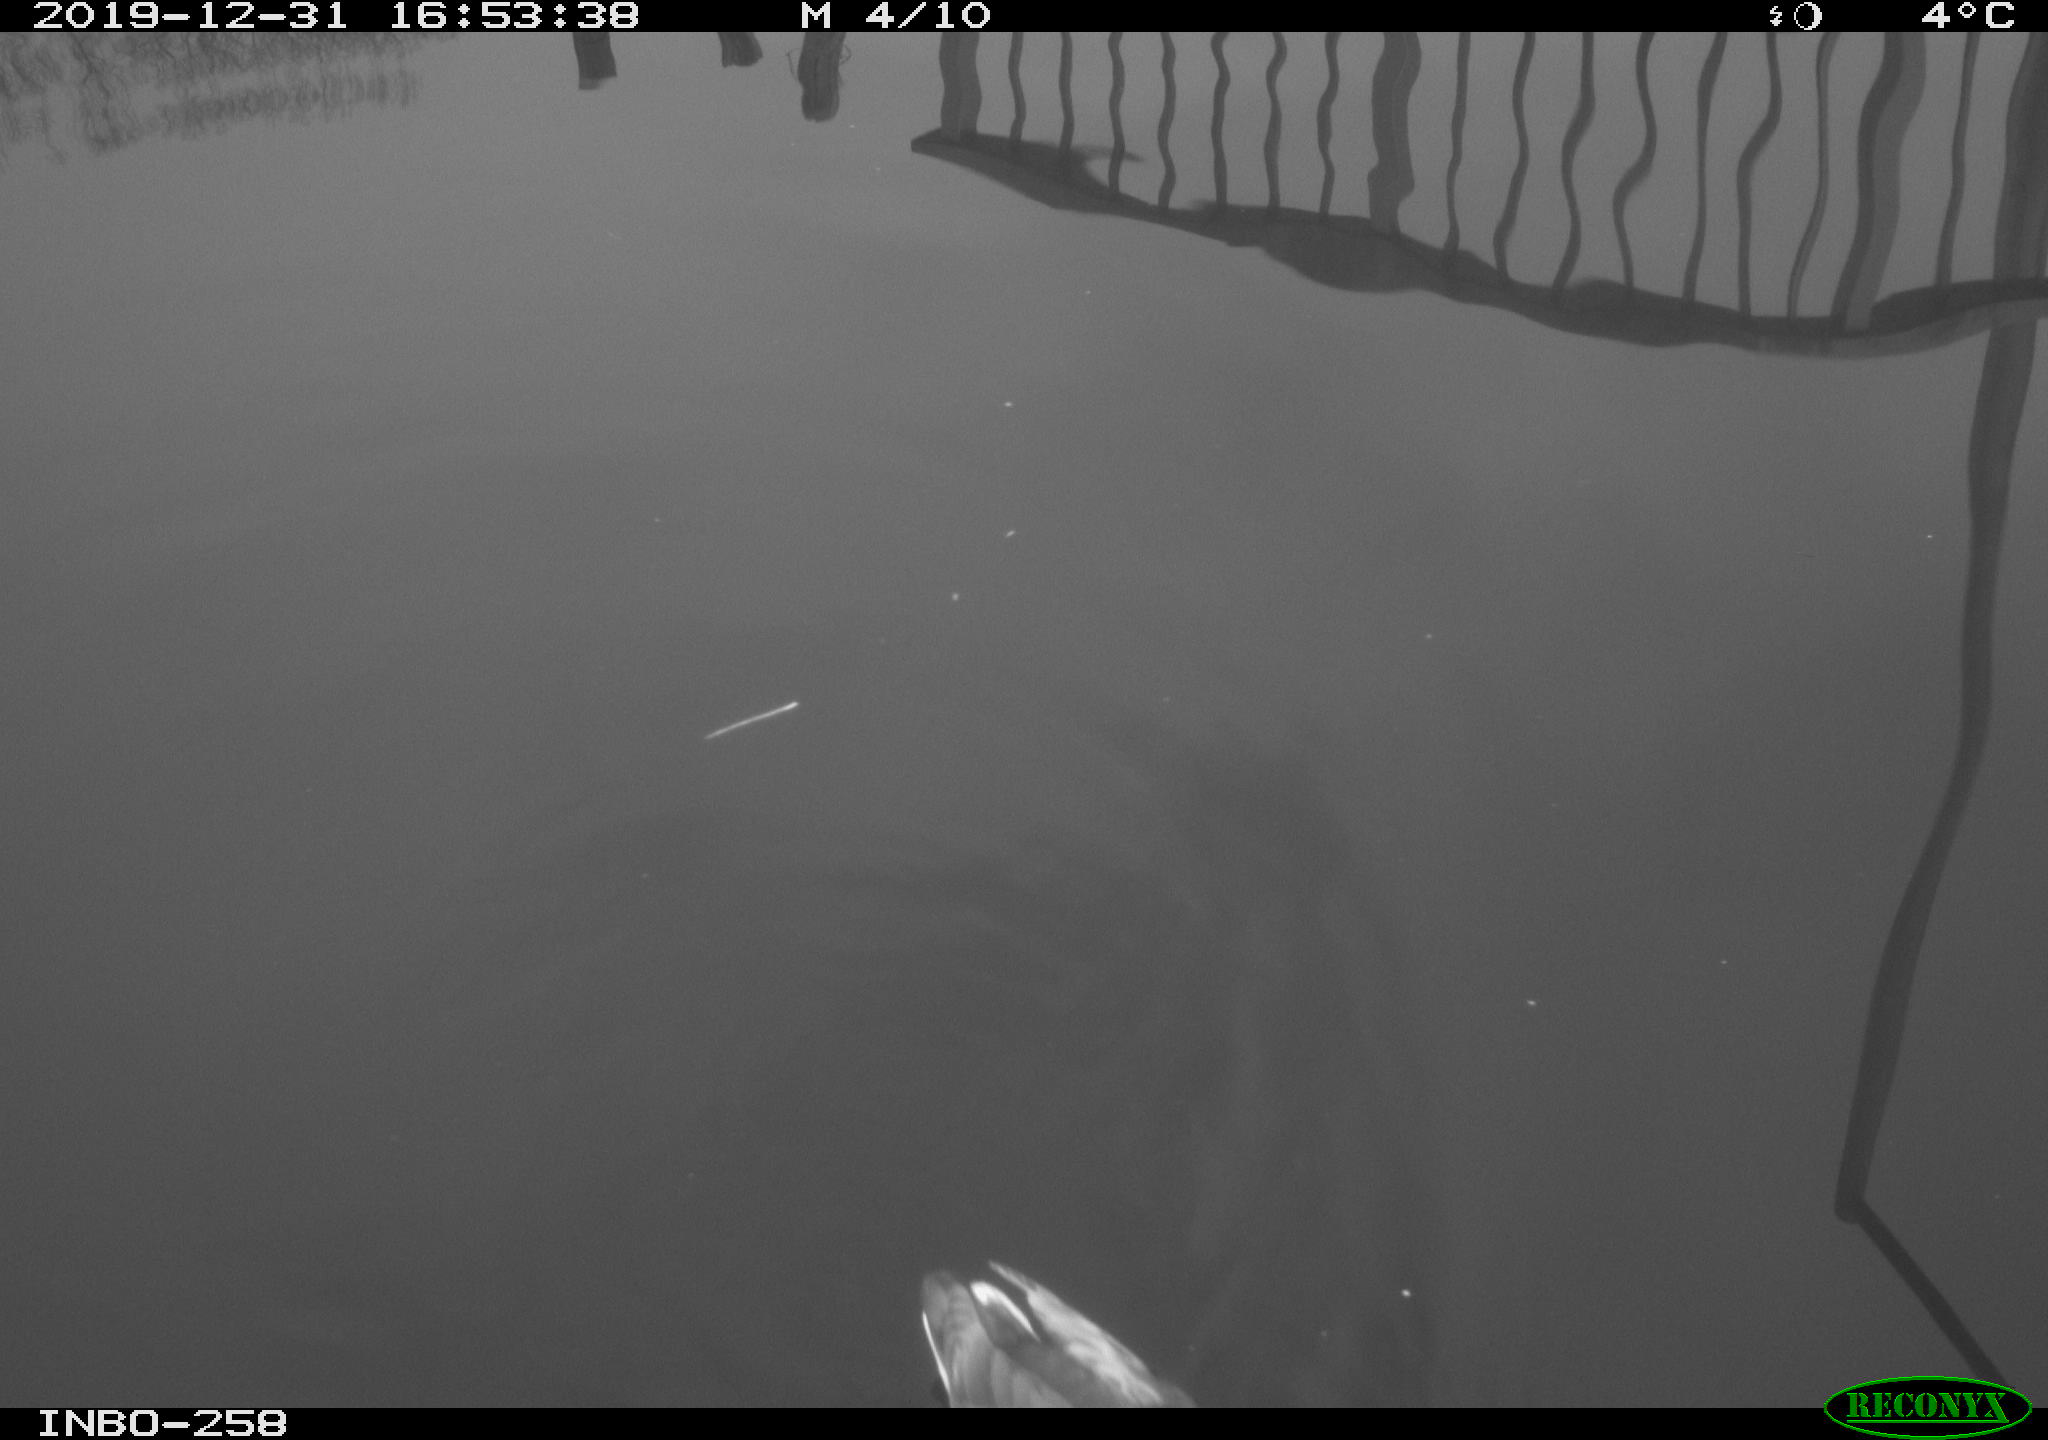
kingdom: Animalia
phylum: Chordata
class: Aves
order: Gruiformes
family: Rallidae
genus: Gallinula
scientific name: Gallinula chloropus
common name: Common moorhen
